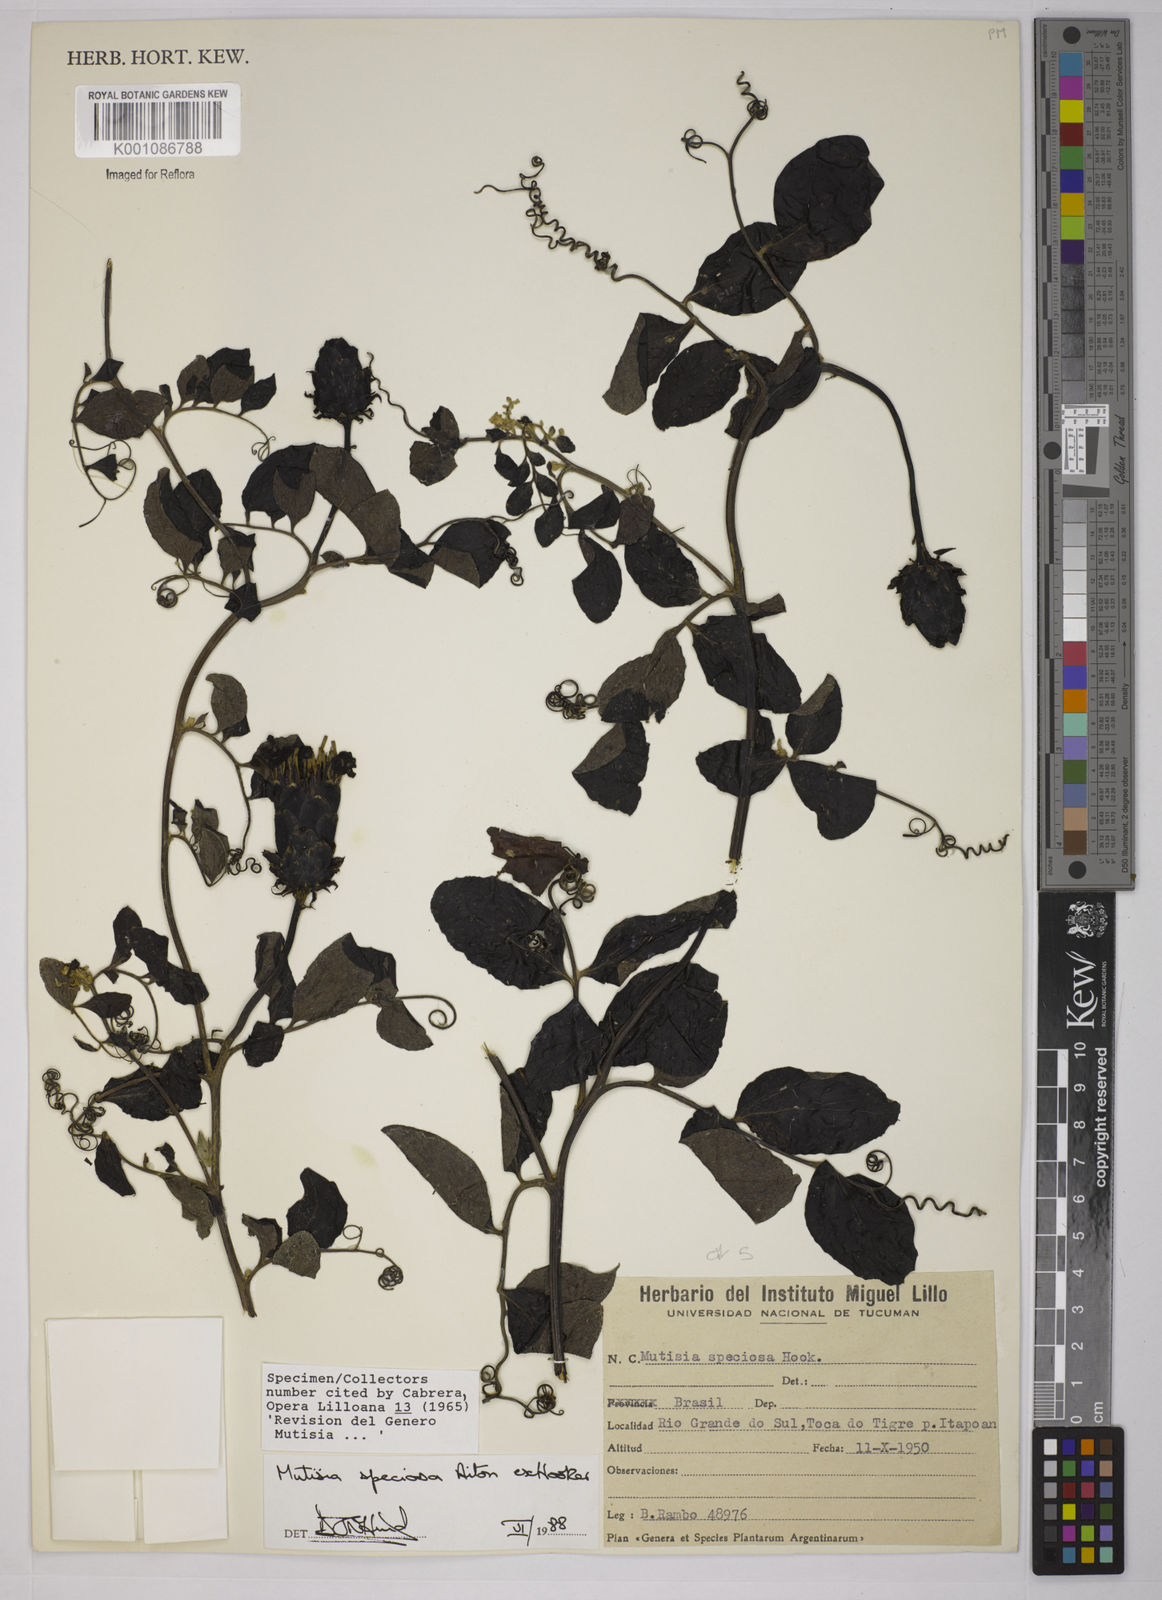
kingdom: Plantae
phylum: Tracheophyta
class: Magnoliopsida
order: Asterales
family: Asteraceae
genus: Mutisia
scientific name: Mutisia speciosa
